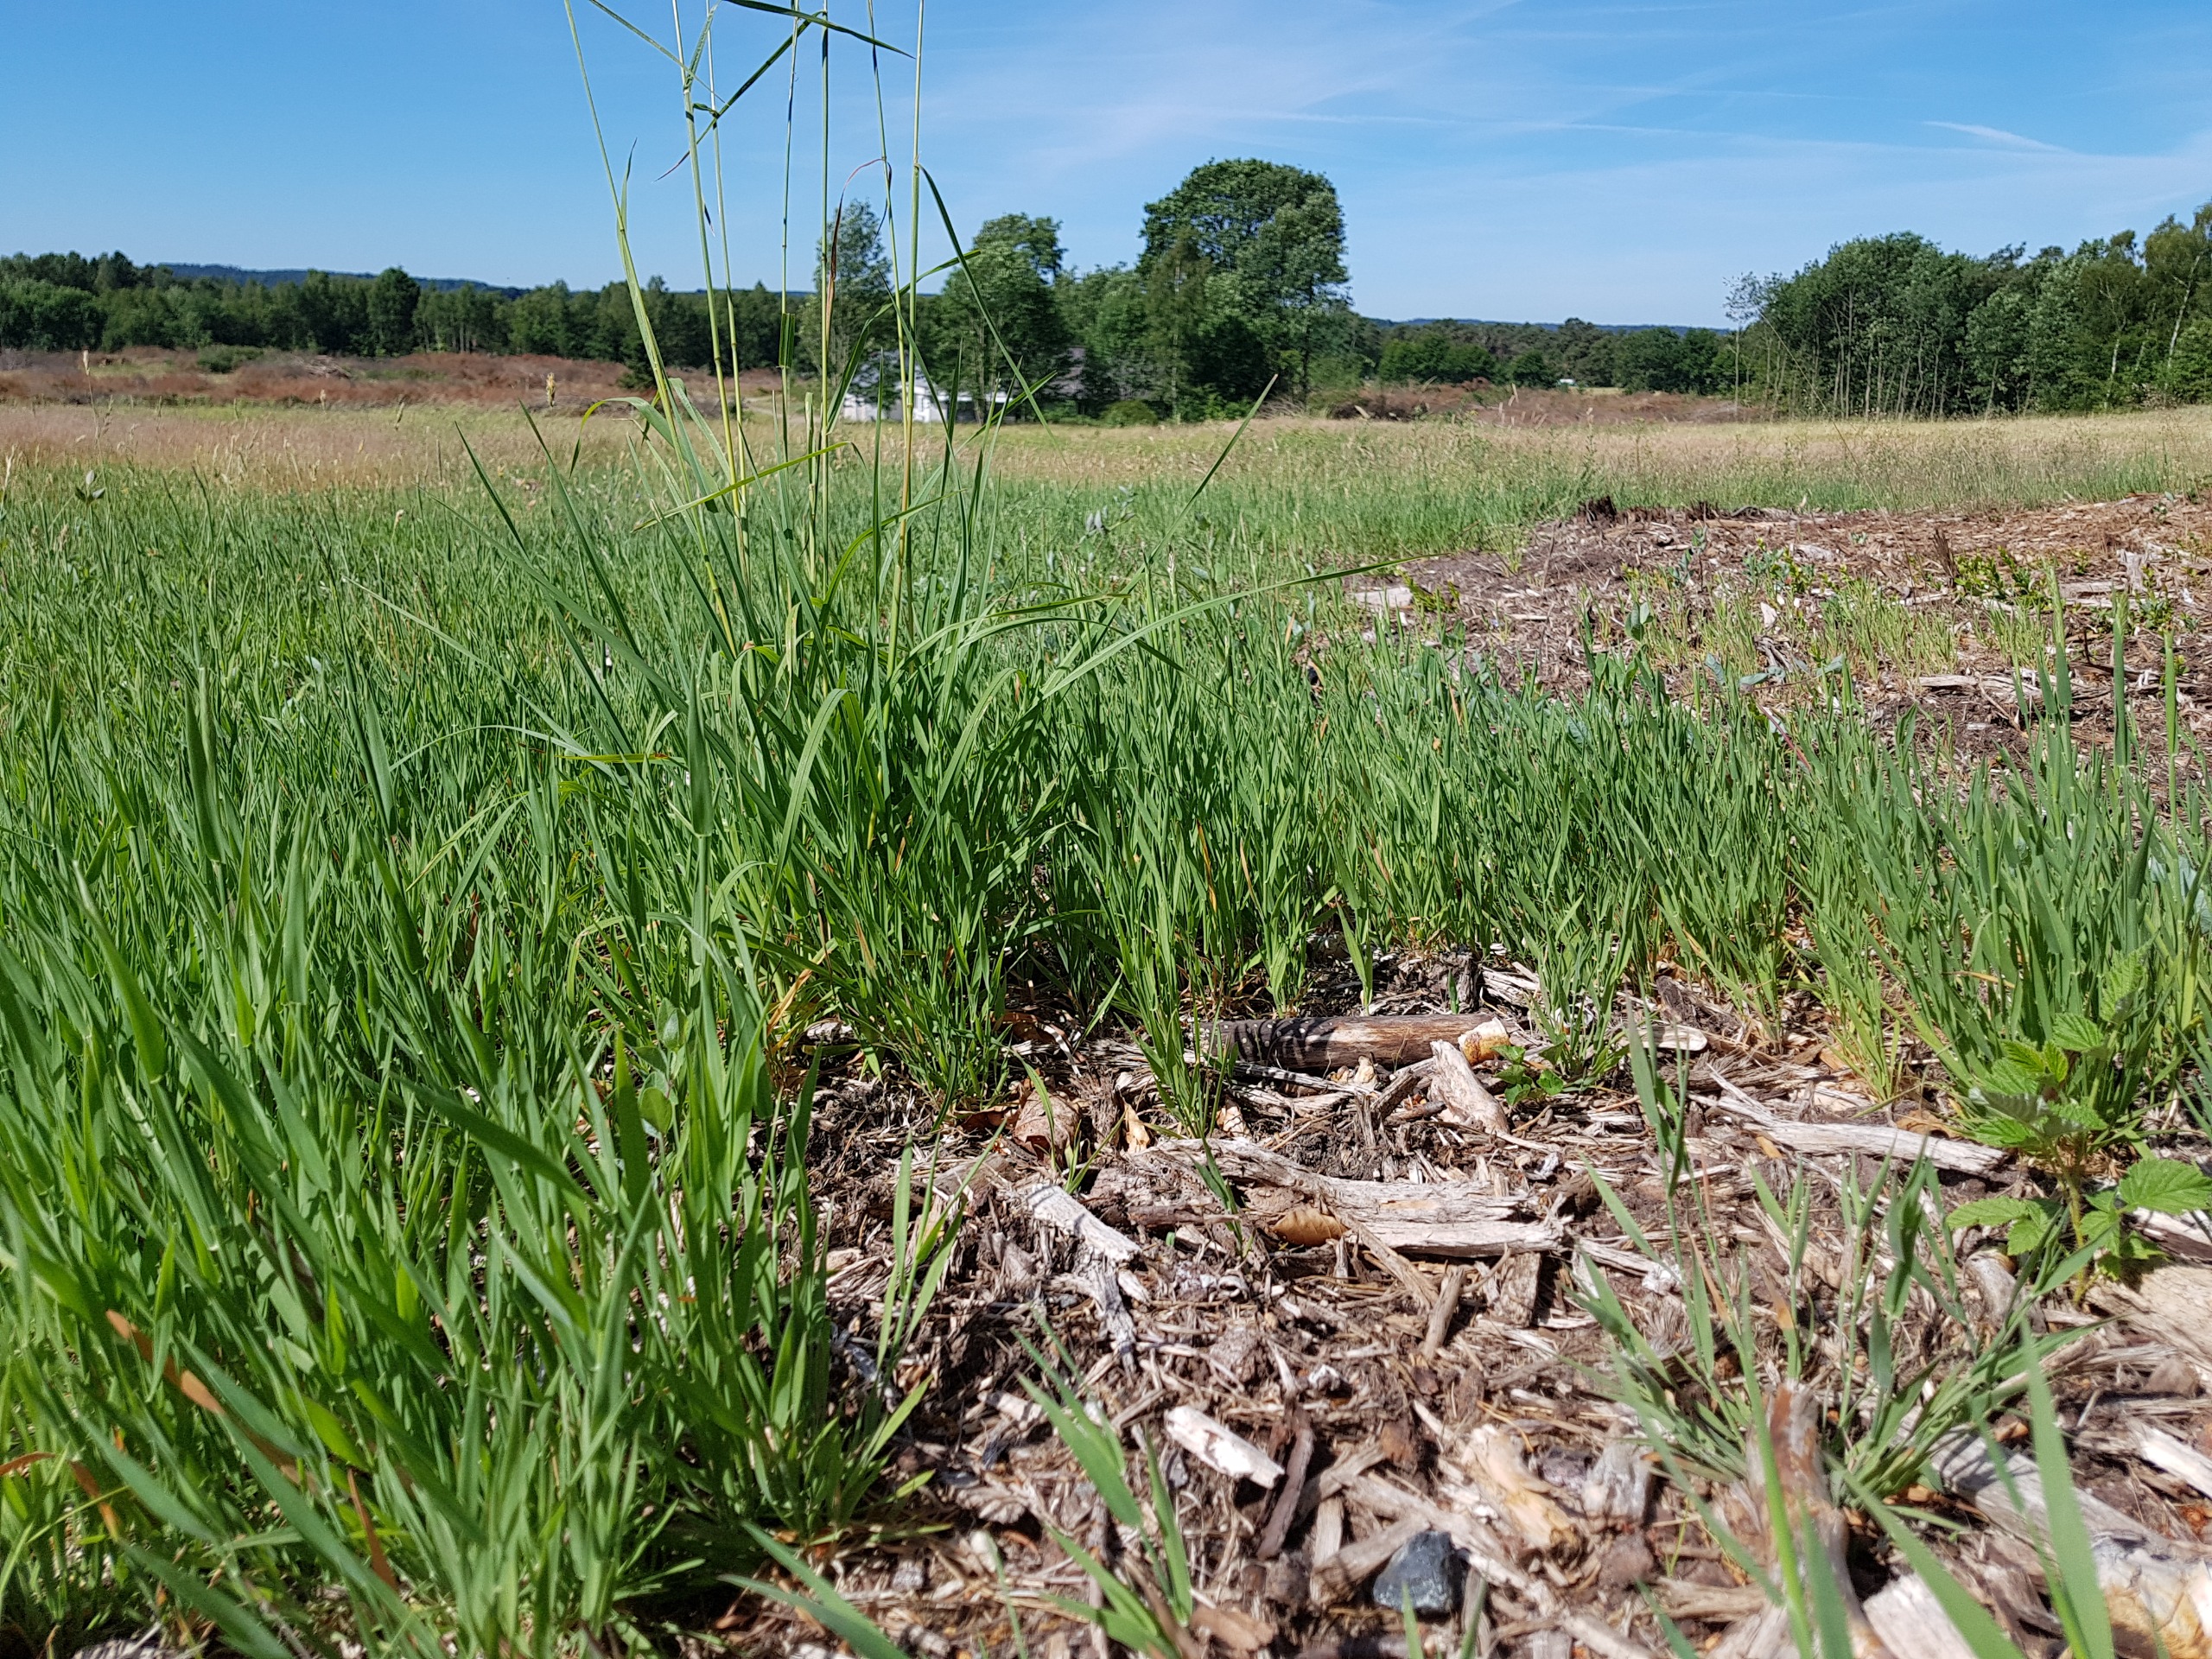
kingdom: Animalia
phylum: Chordata
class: Squamata
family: Lacertidae
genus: Lacerta
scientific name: Lacerta agilis
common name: Markfirben
